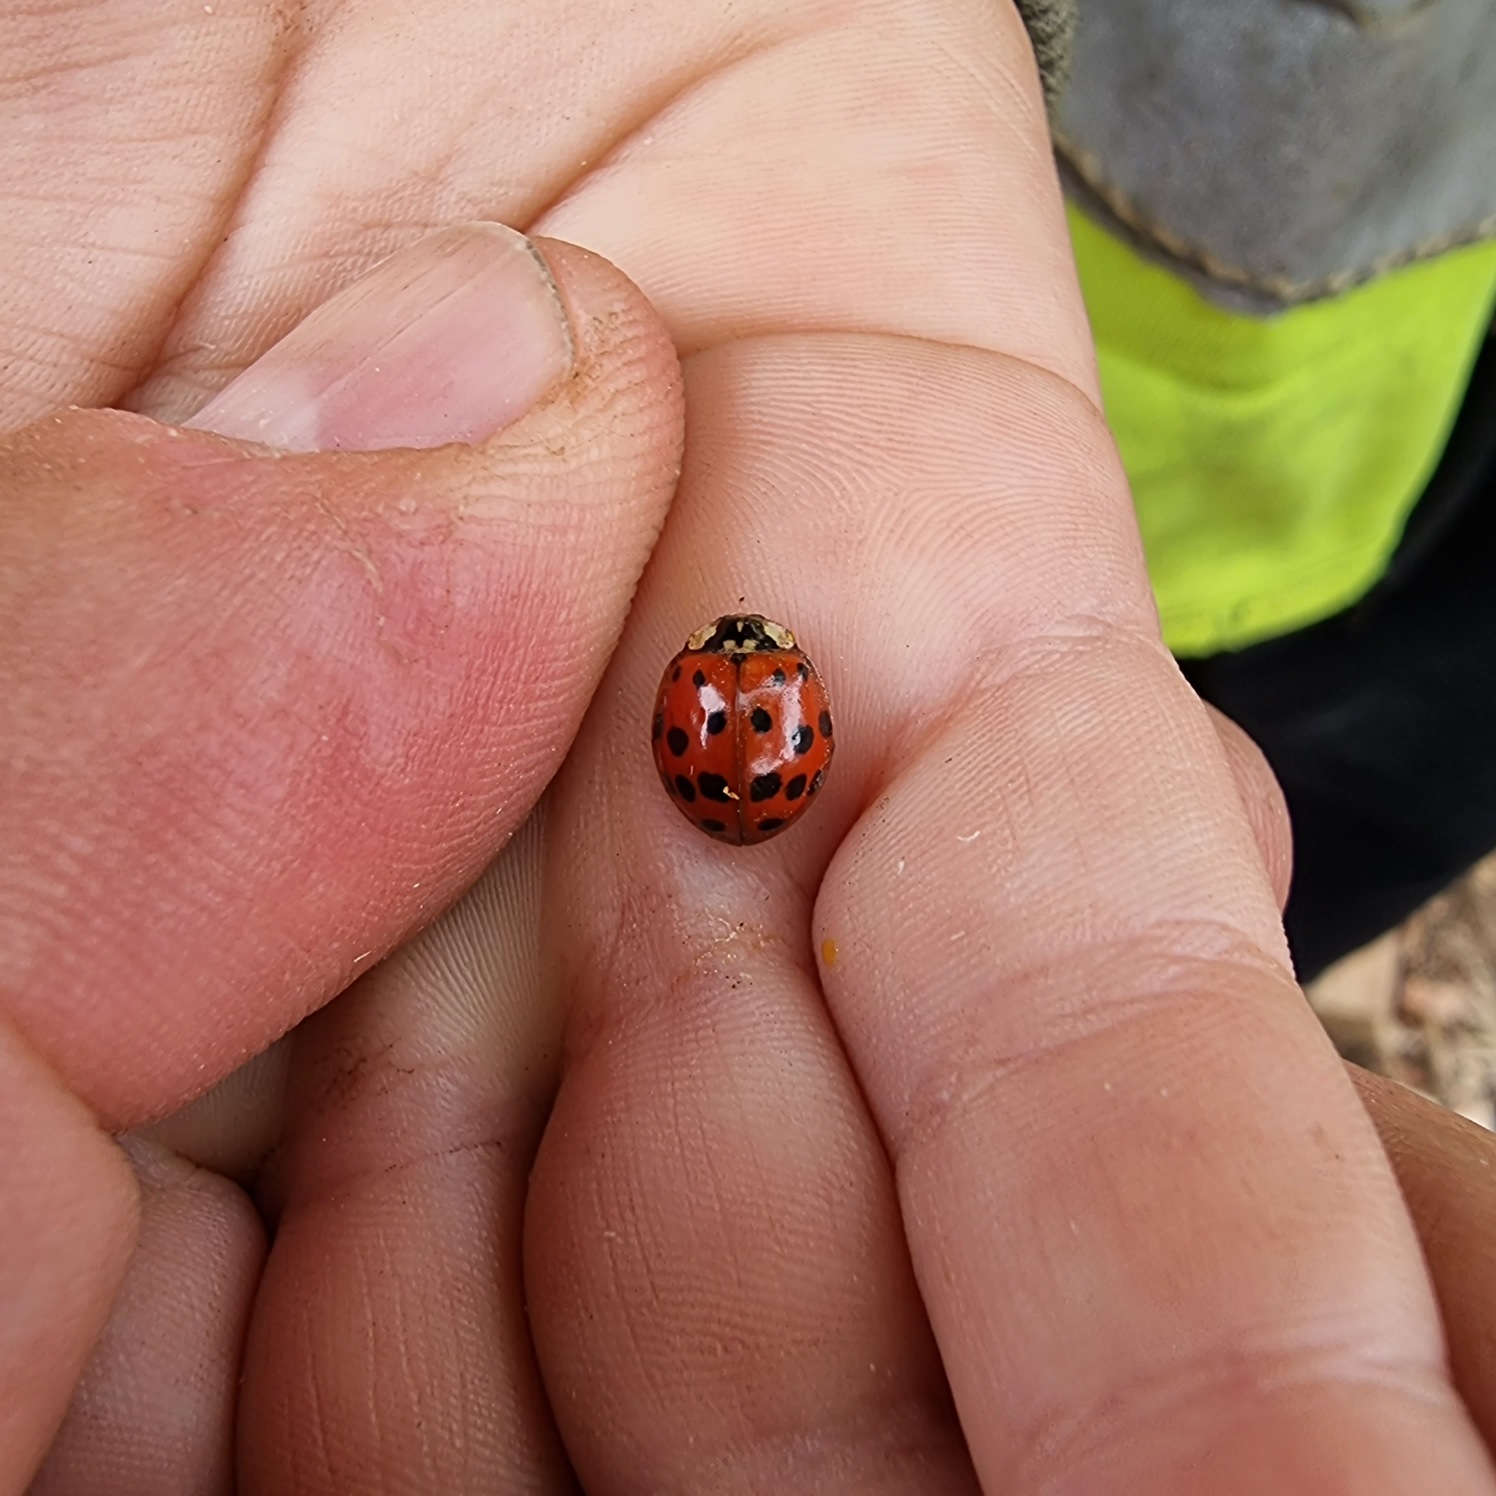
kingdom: Animalia
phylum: Arthropoda
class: Insecta
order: Coleoptera
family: Coccinellidae
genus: Harmonia
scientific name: Harmonia axyridis
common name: Harlekinmariehøne
